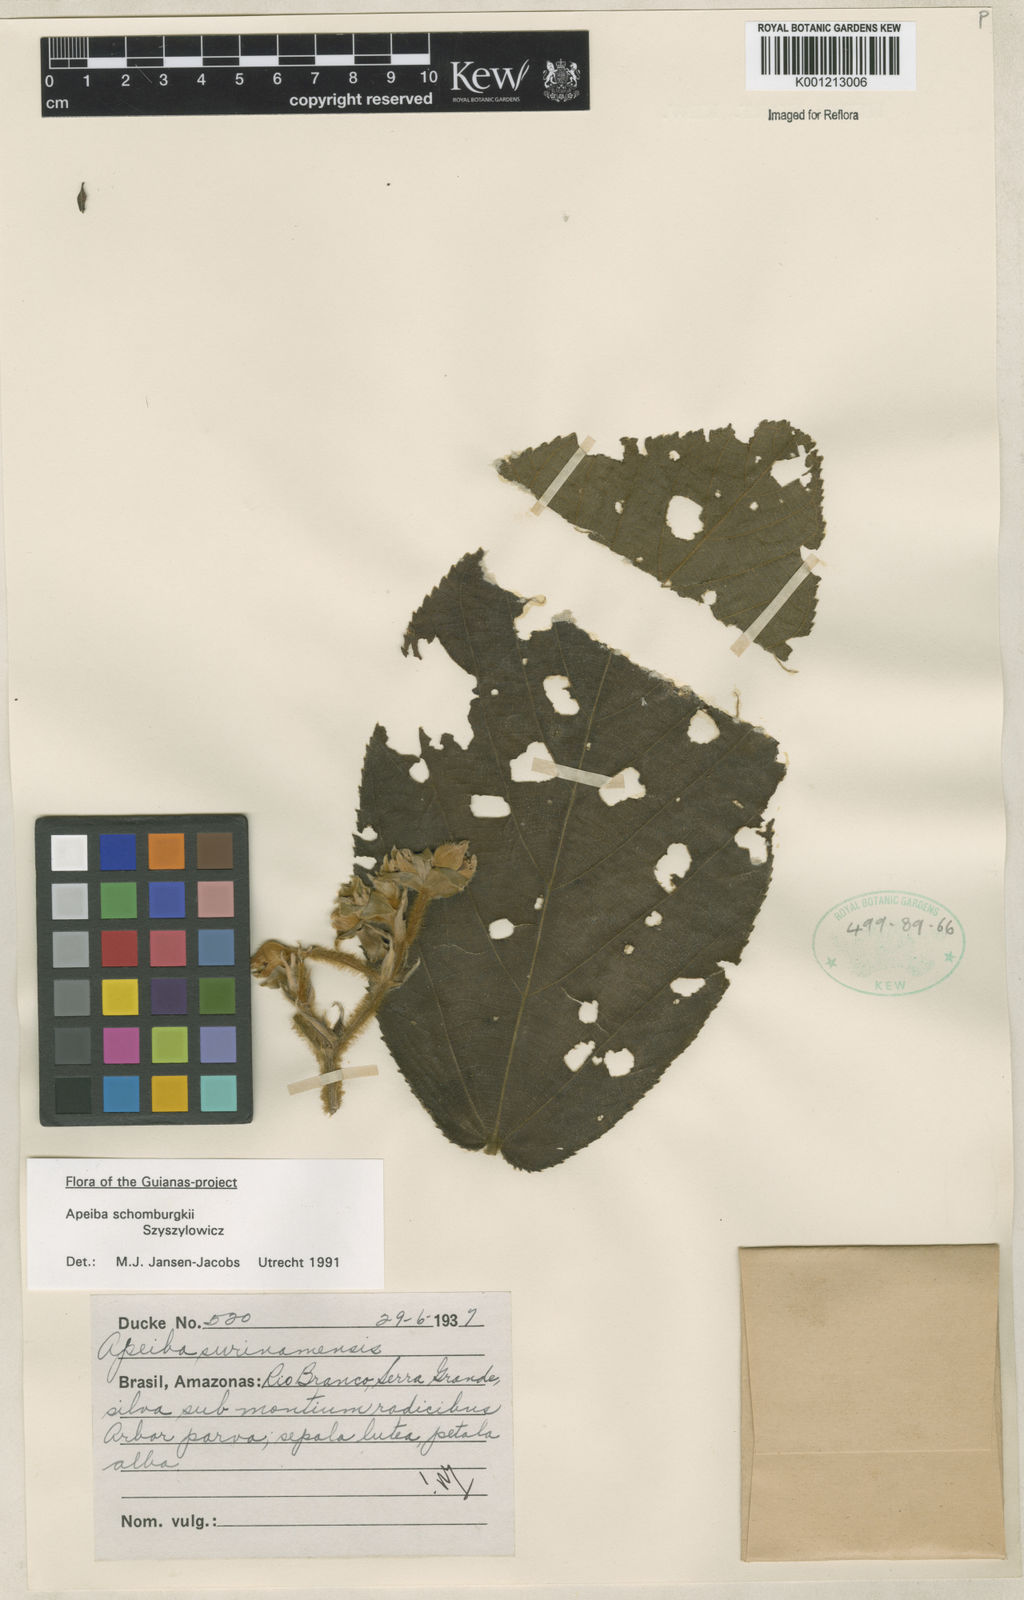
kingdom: Plantae
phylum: Tracheophyta
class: Magnoliopsida
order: Malvales
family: Malvaceae
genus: Apeiba
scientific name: Apeiba schomburgkii
